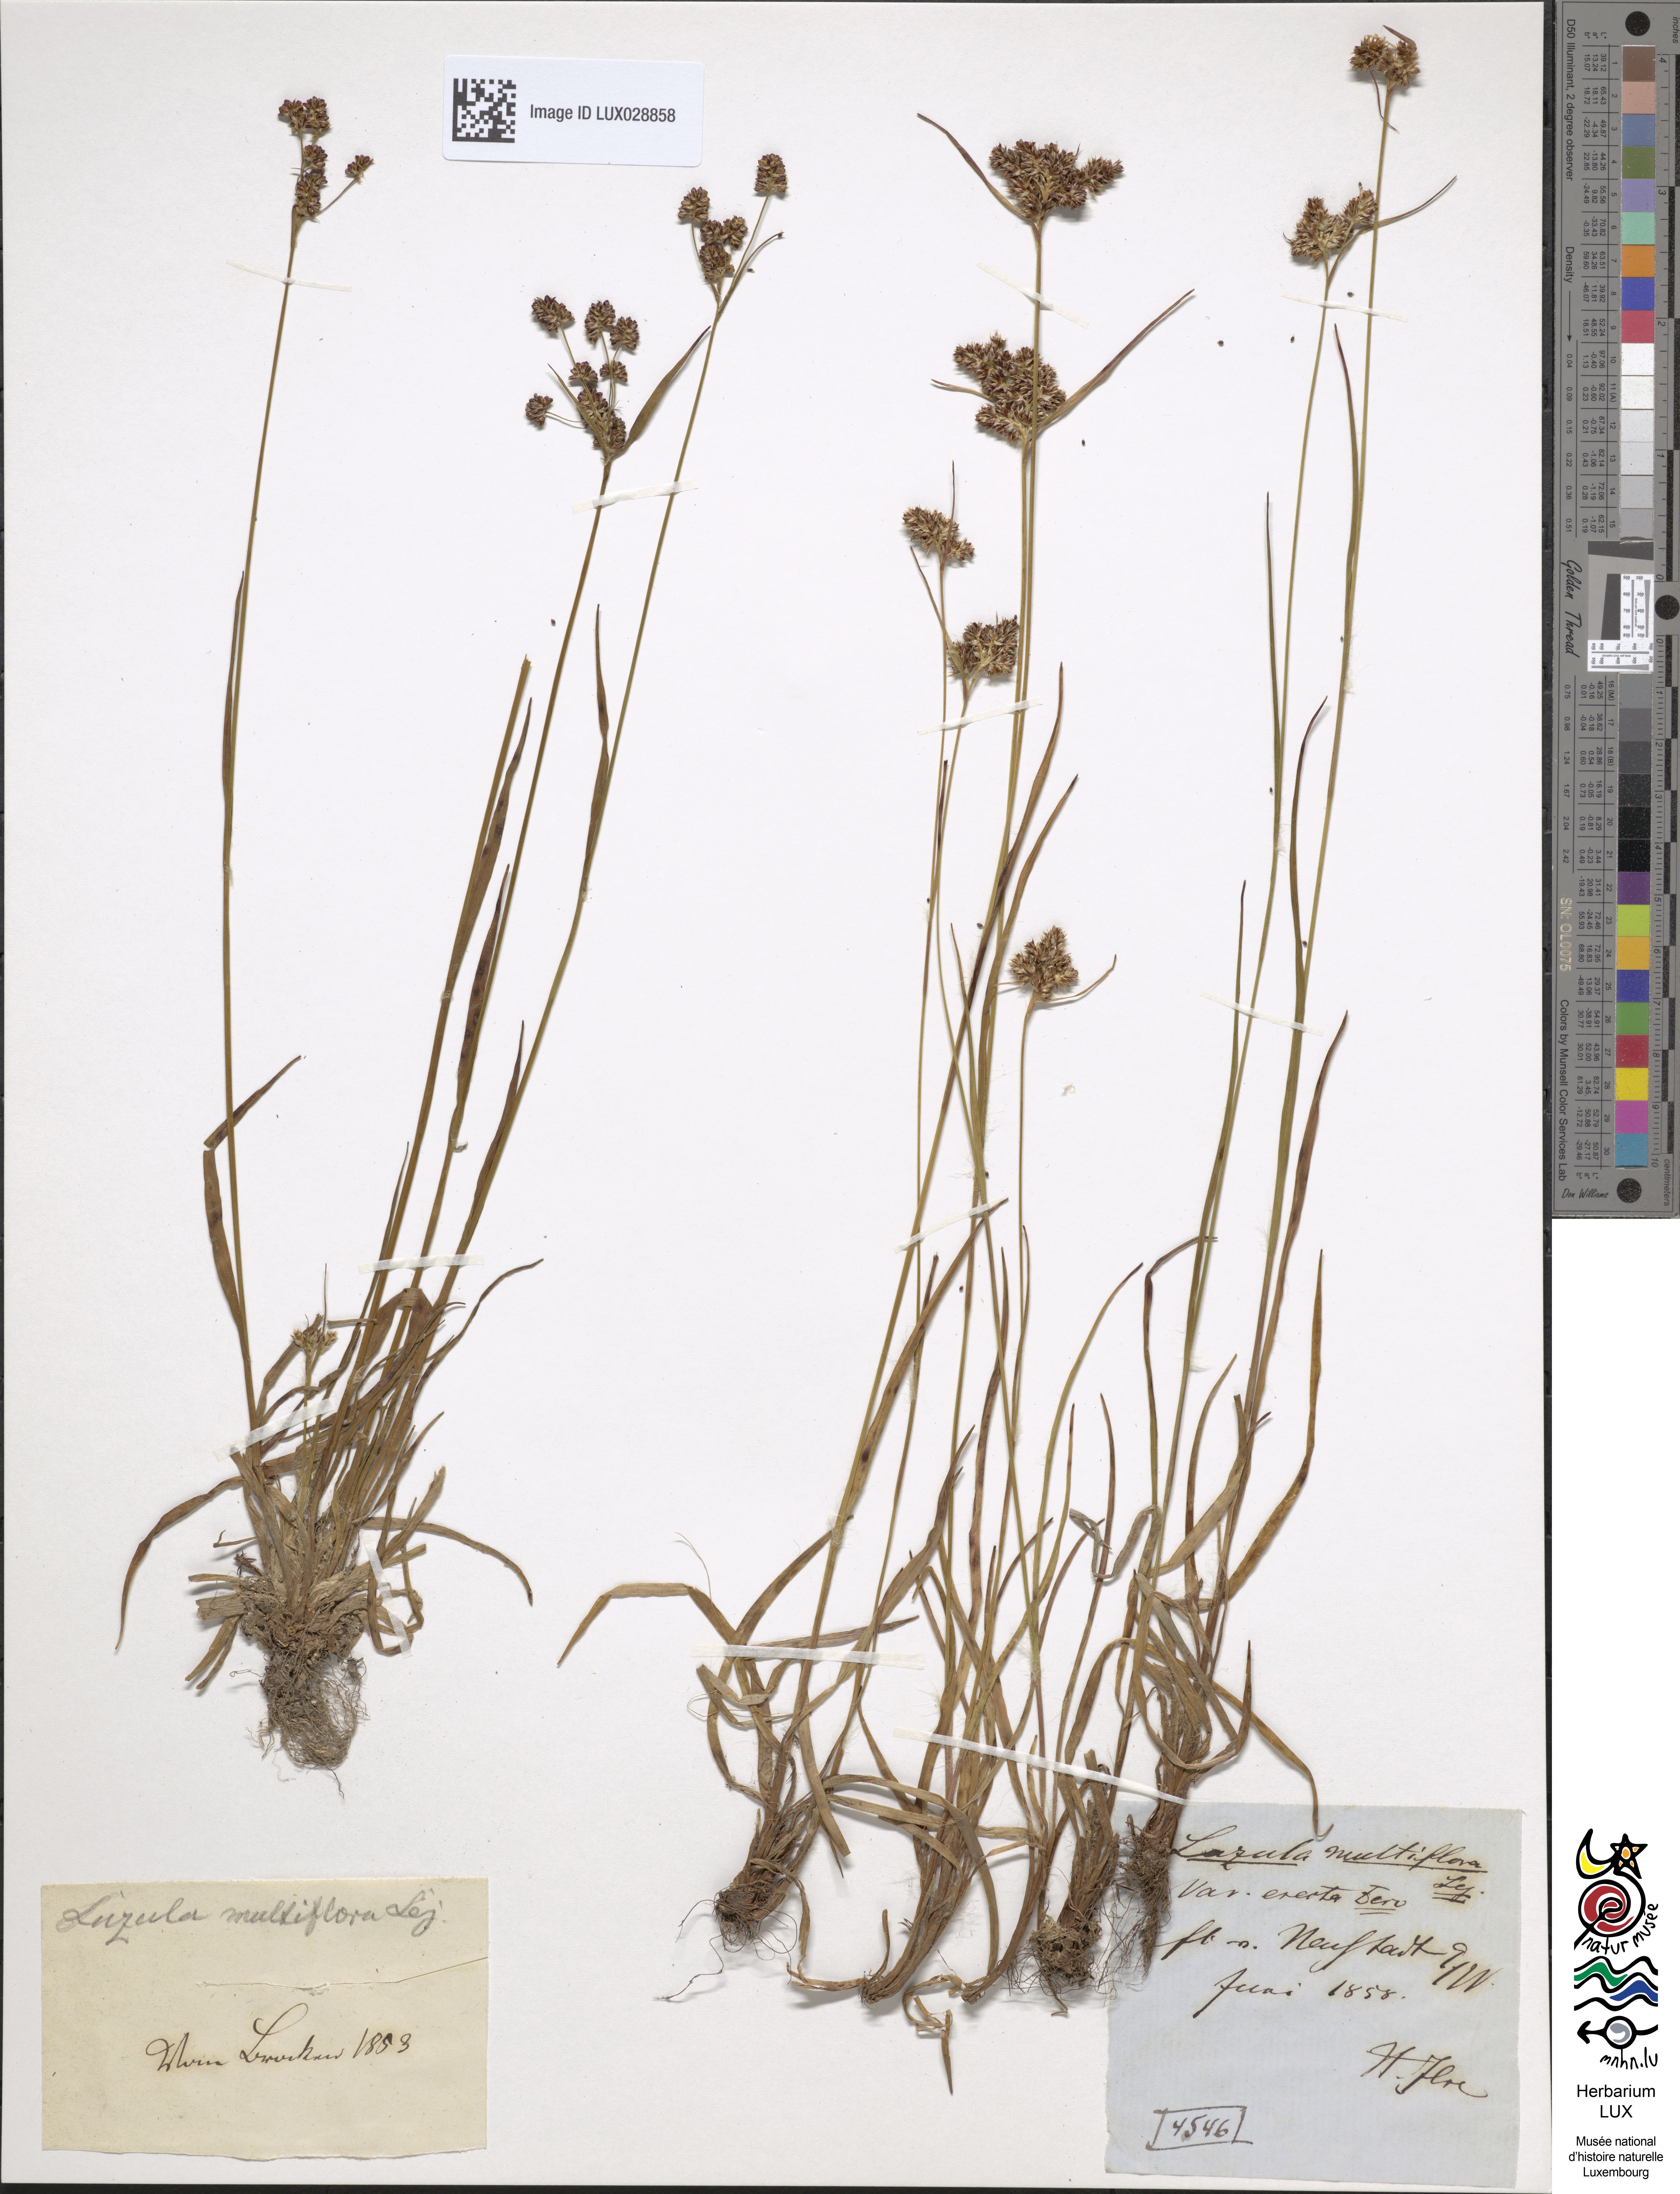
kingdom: Plantae
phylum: Tracheophyta
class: Liliopsida
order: Poales
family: Juncaceae
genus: Luzula
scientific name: Luzula multiflora
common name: Heath wood-rush
